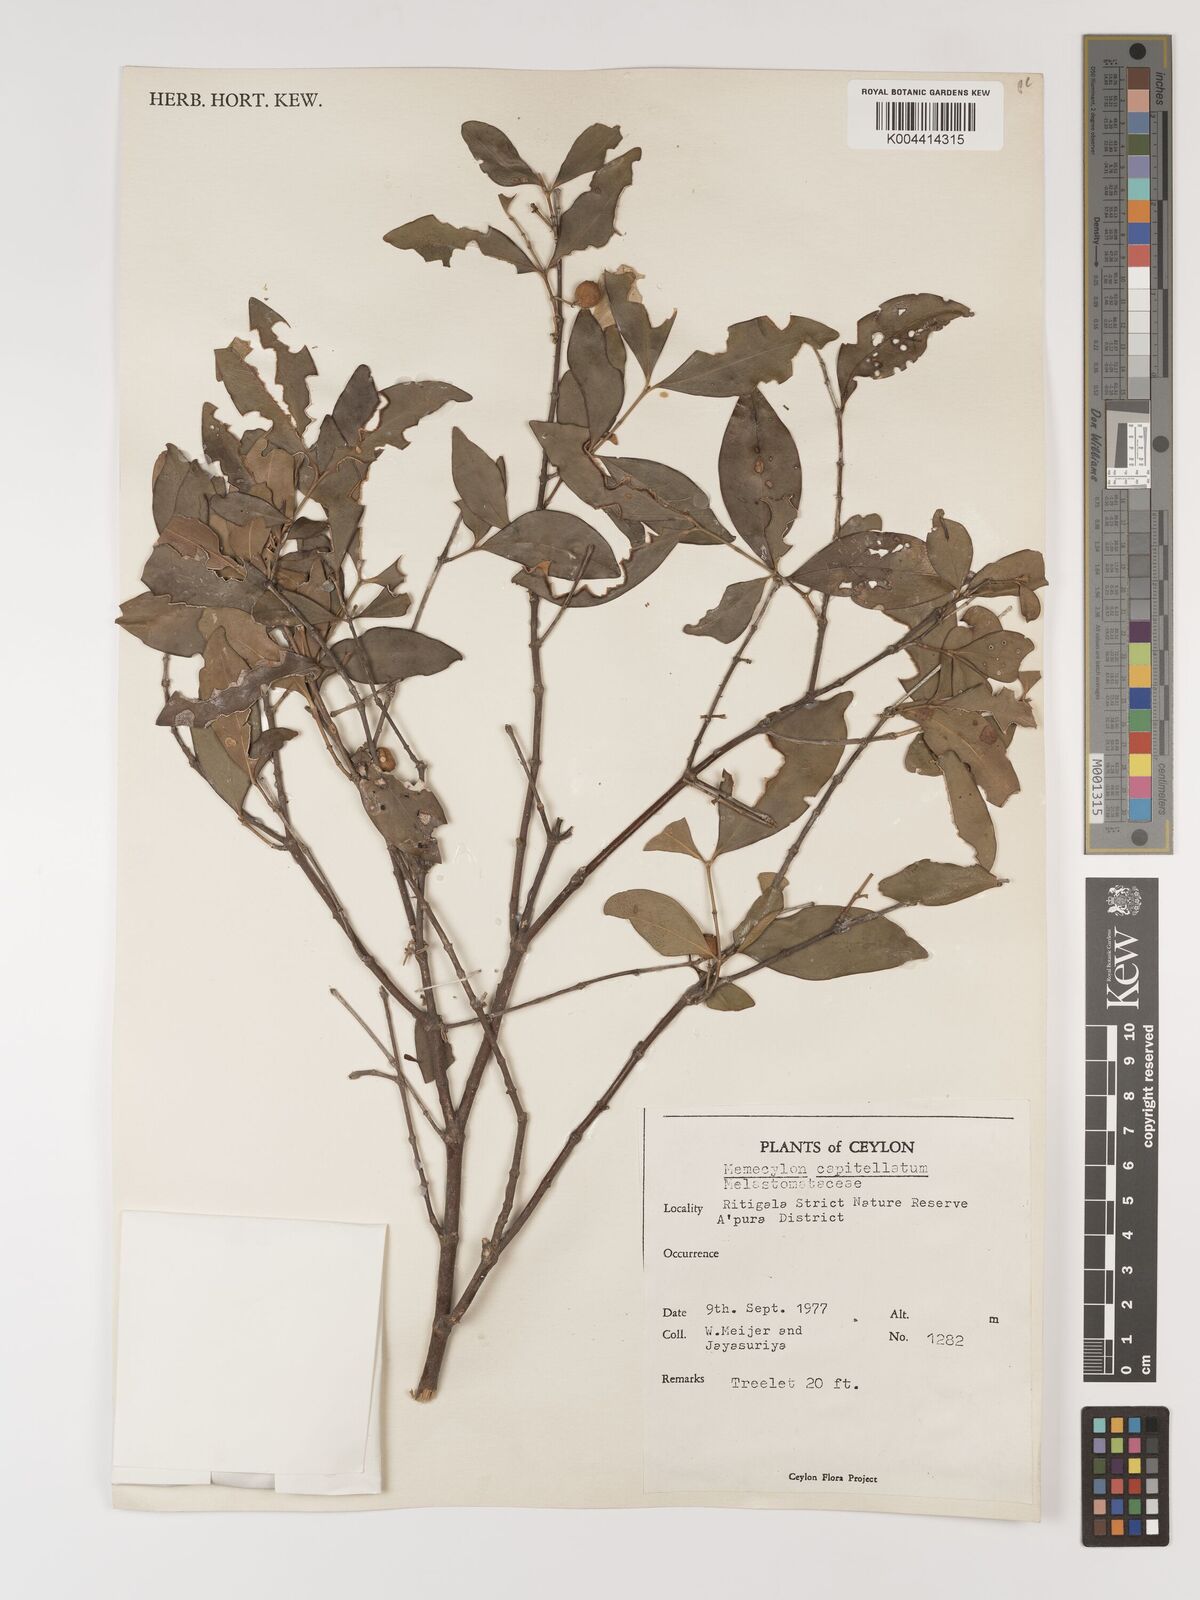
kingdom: Plantae
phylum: Tracheophyta
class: Magnoliopsida
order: Myrtales
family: Melastomataceae
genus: Memecylon
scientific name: Memecylon capitellatum
